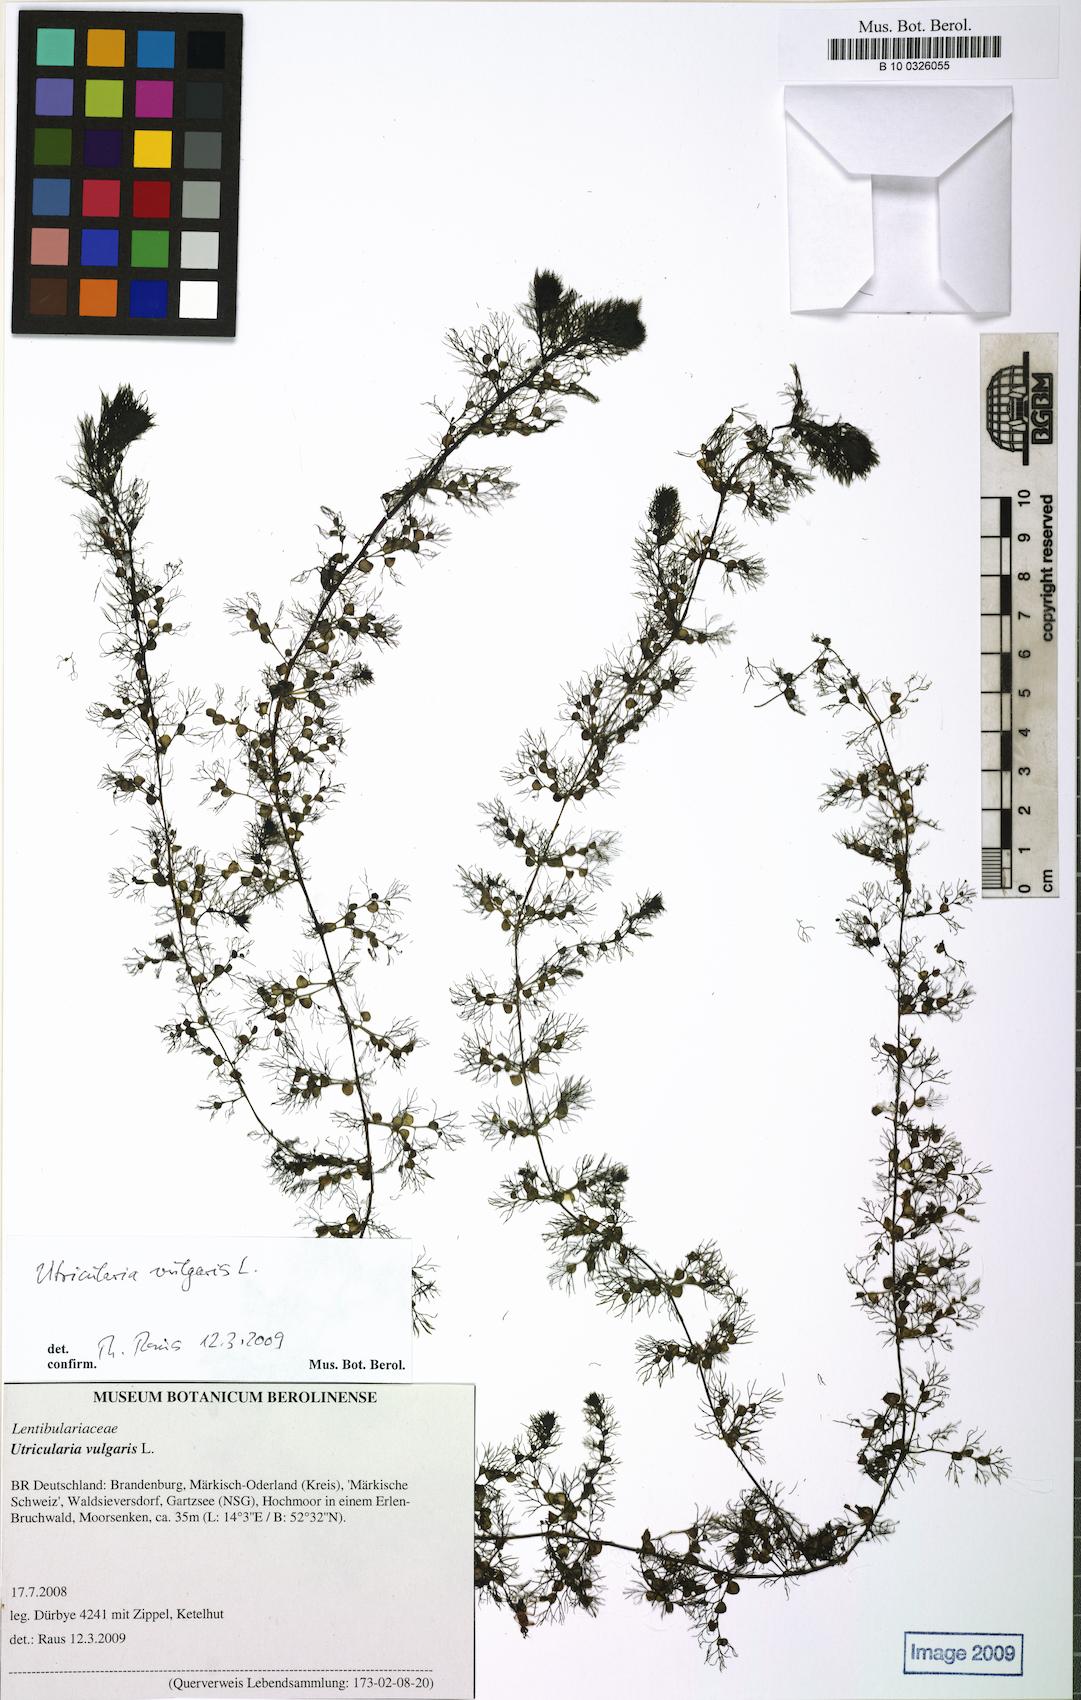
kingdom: Plantae
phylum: Tracheophyta
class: Magnoliopsida
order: Lamiales
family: Lentibulariaceae
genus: Utricularia
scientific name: Utricularia vulgaris
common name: Greater bladderwort
